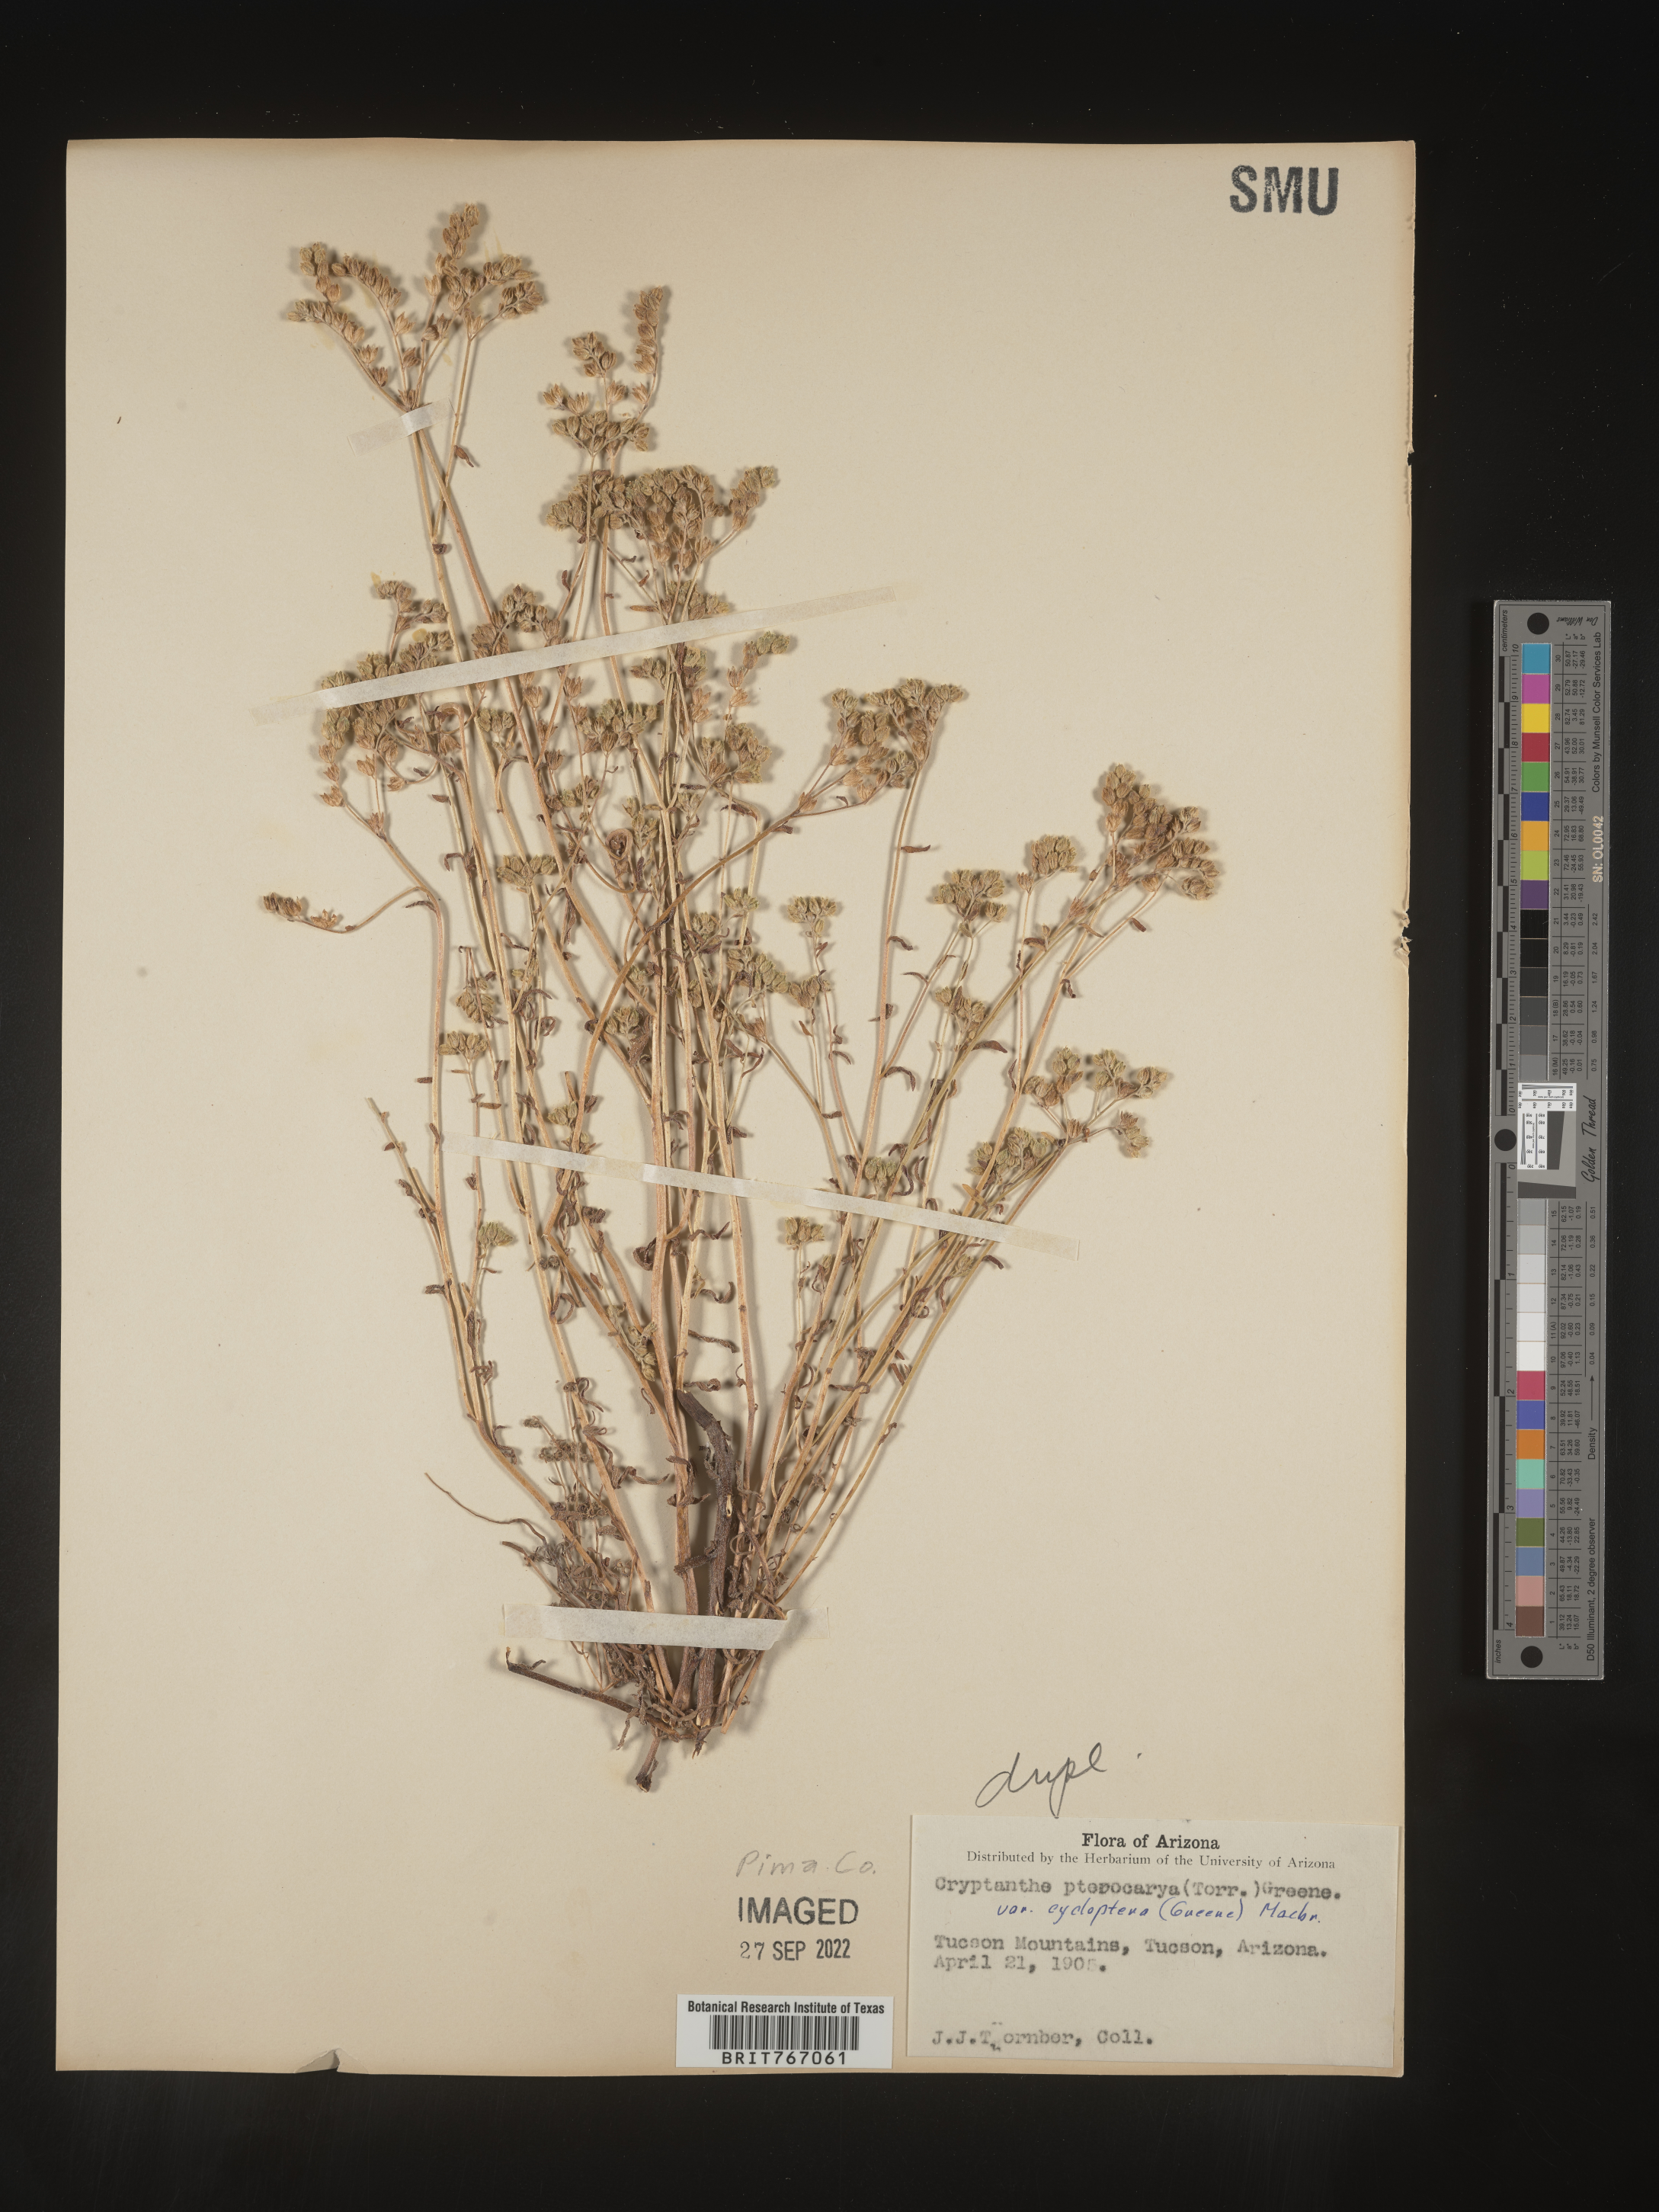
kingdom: Plantae
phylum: Tracheophyta
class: Magnoliopsida
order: Boraginales
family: Boraginaceae
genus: Cryptantha
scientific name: Cryptantha pterocarya
